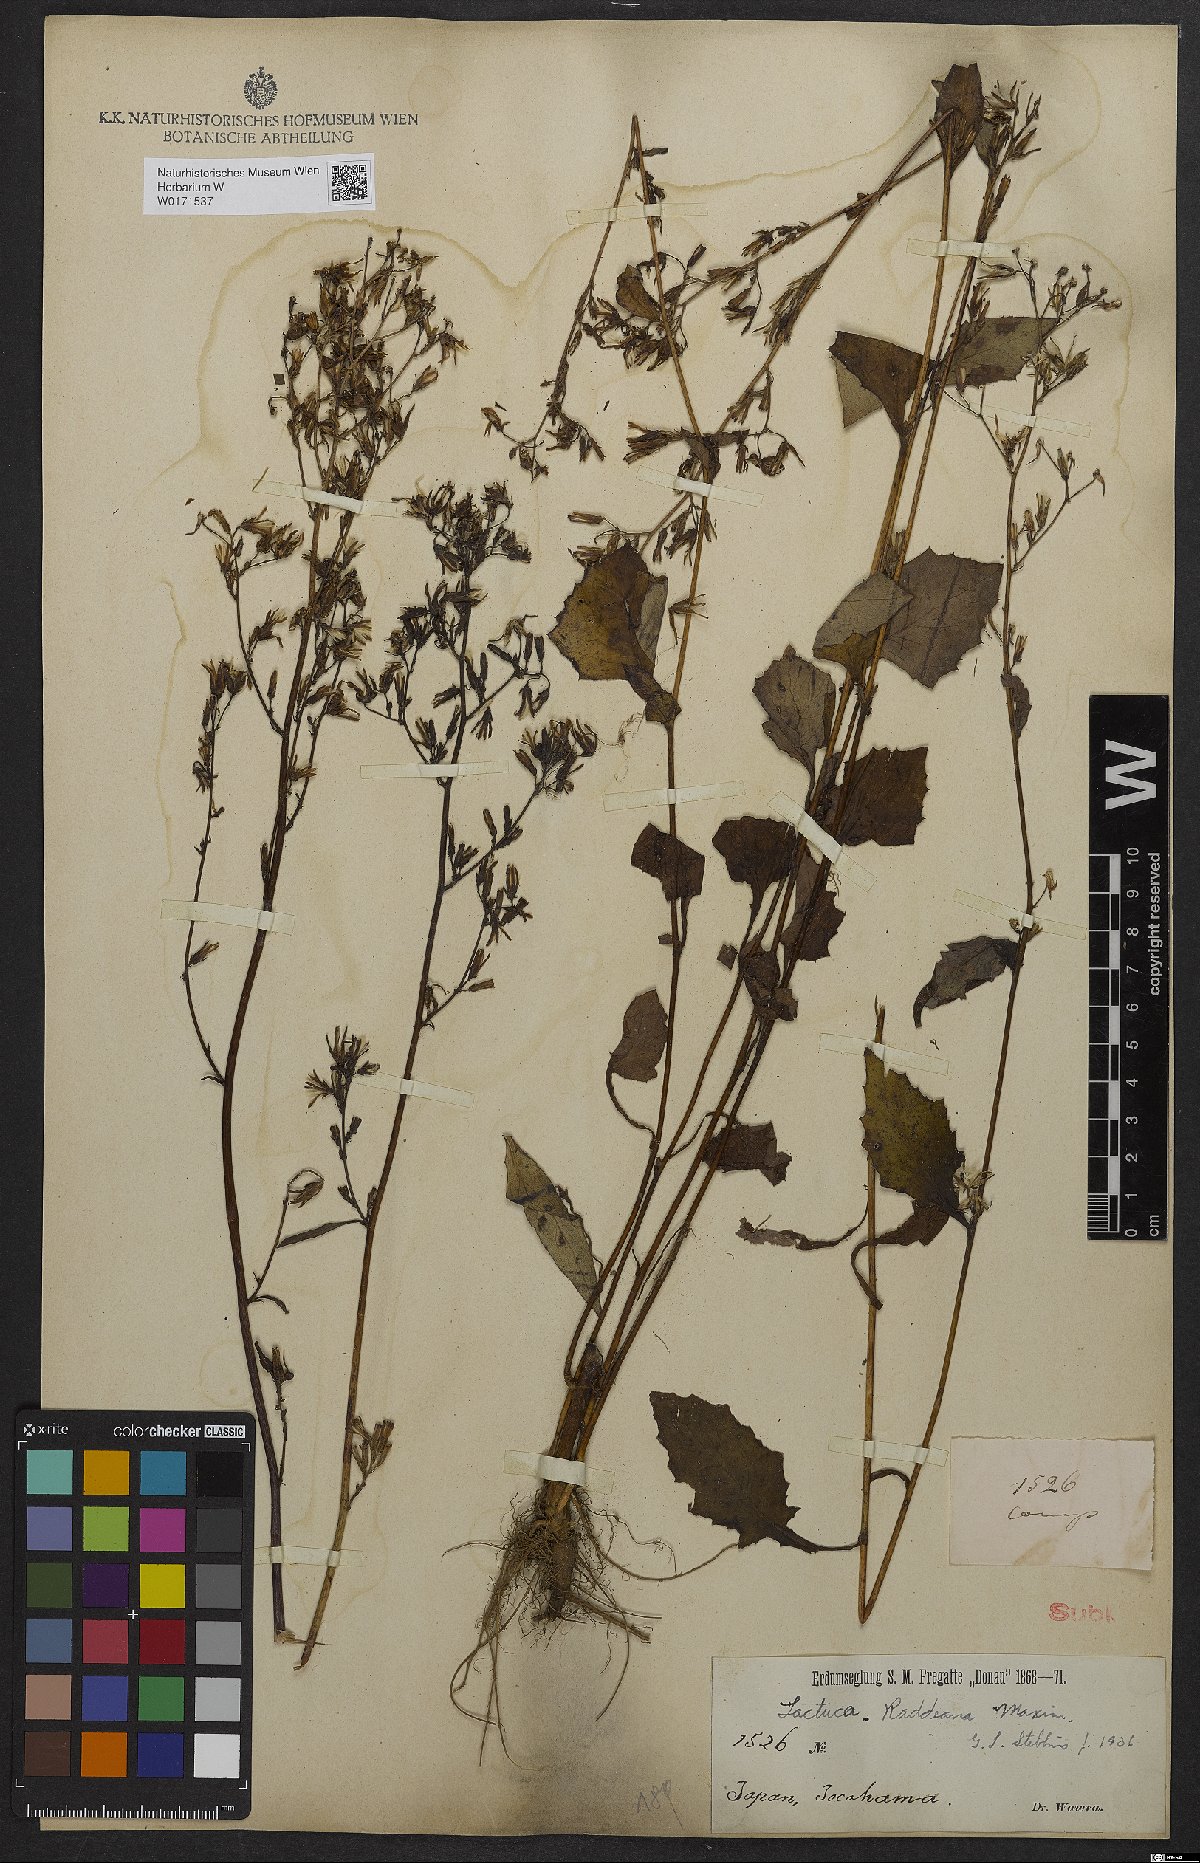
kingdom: Plantae
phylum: Tracheophyta
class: Magnoliopsida
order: Asterales
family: Asteraceae
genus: Lactuca
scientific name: Lactuca raddeana
